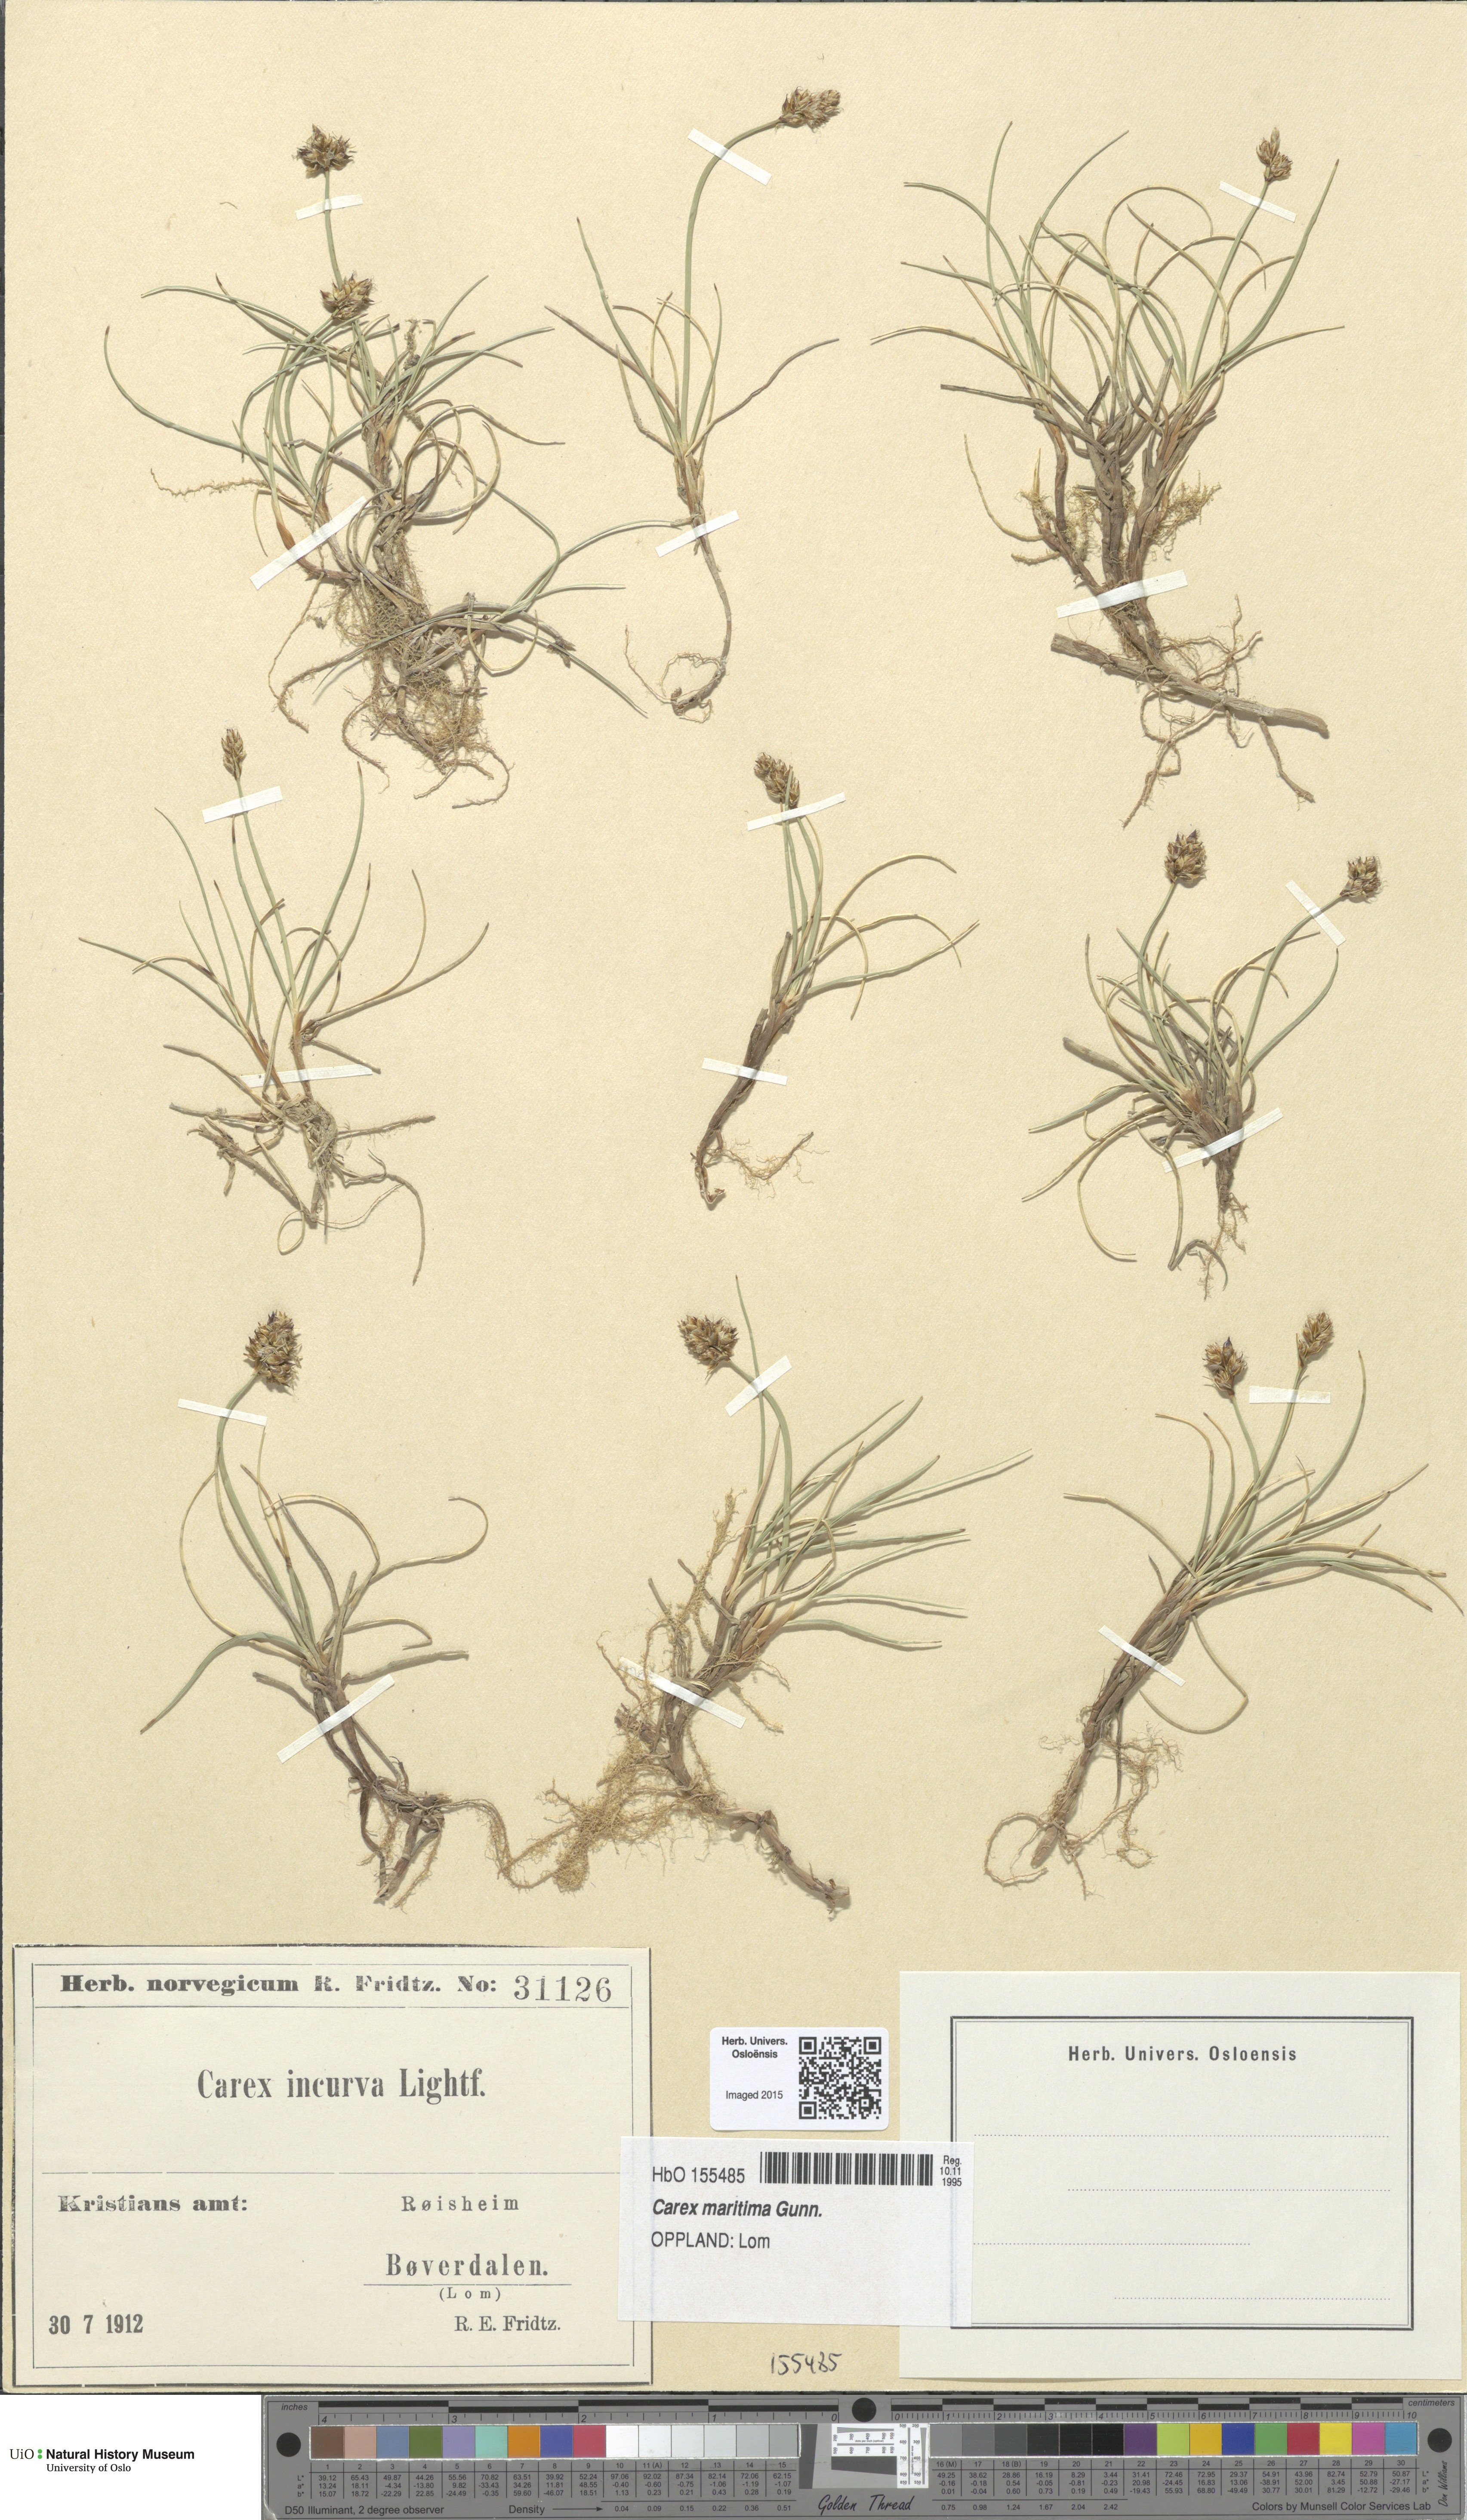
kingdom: Plantae
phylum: Tracheophyta
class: Liliopsida
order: Poales
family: Cyperaceae
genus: Carex
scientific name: Carex maritima
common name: Curved sedge
